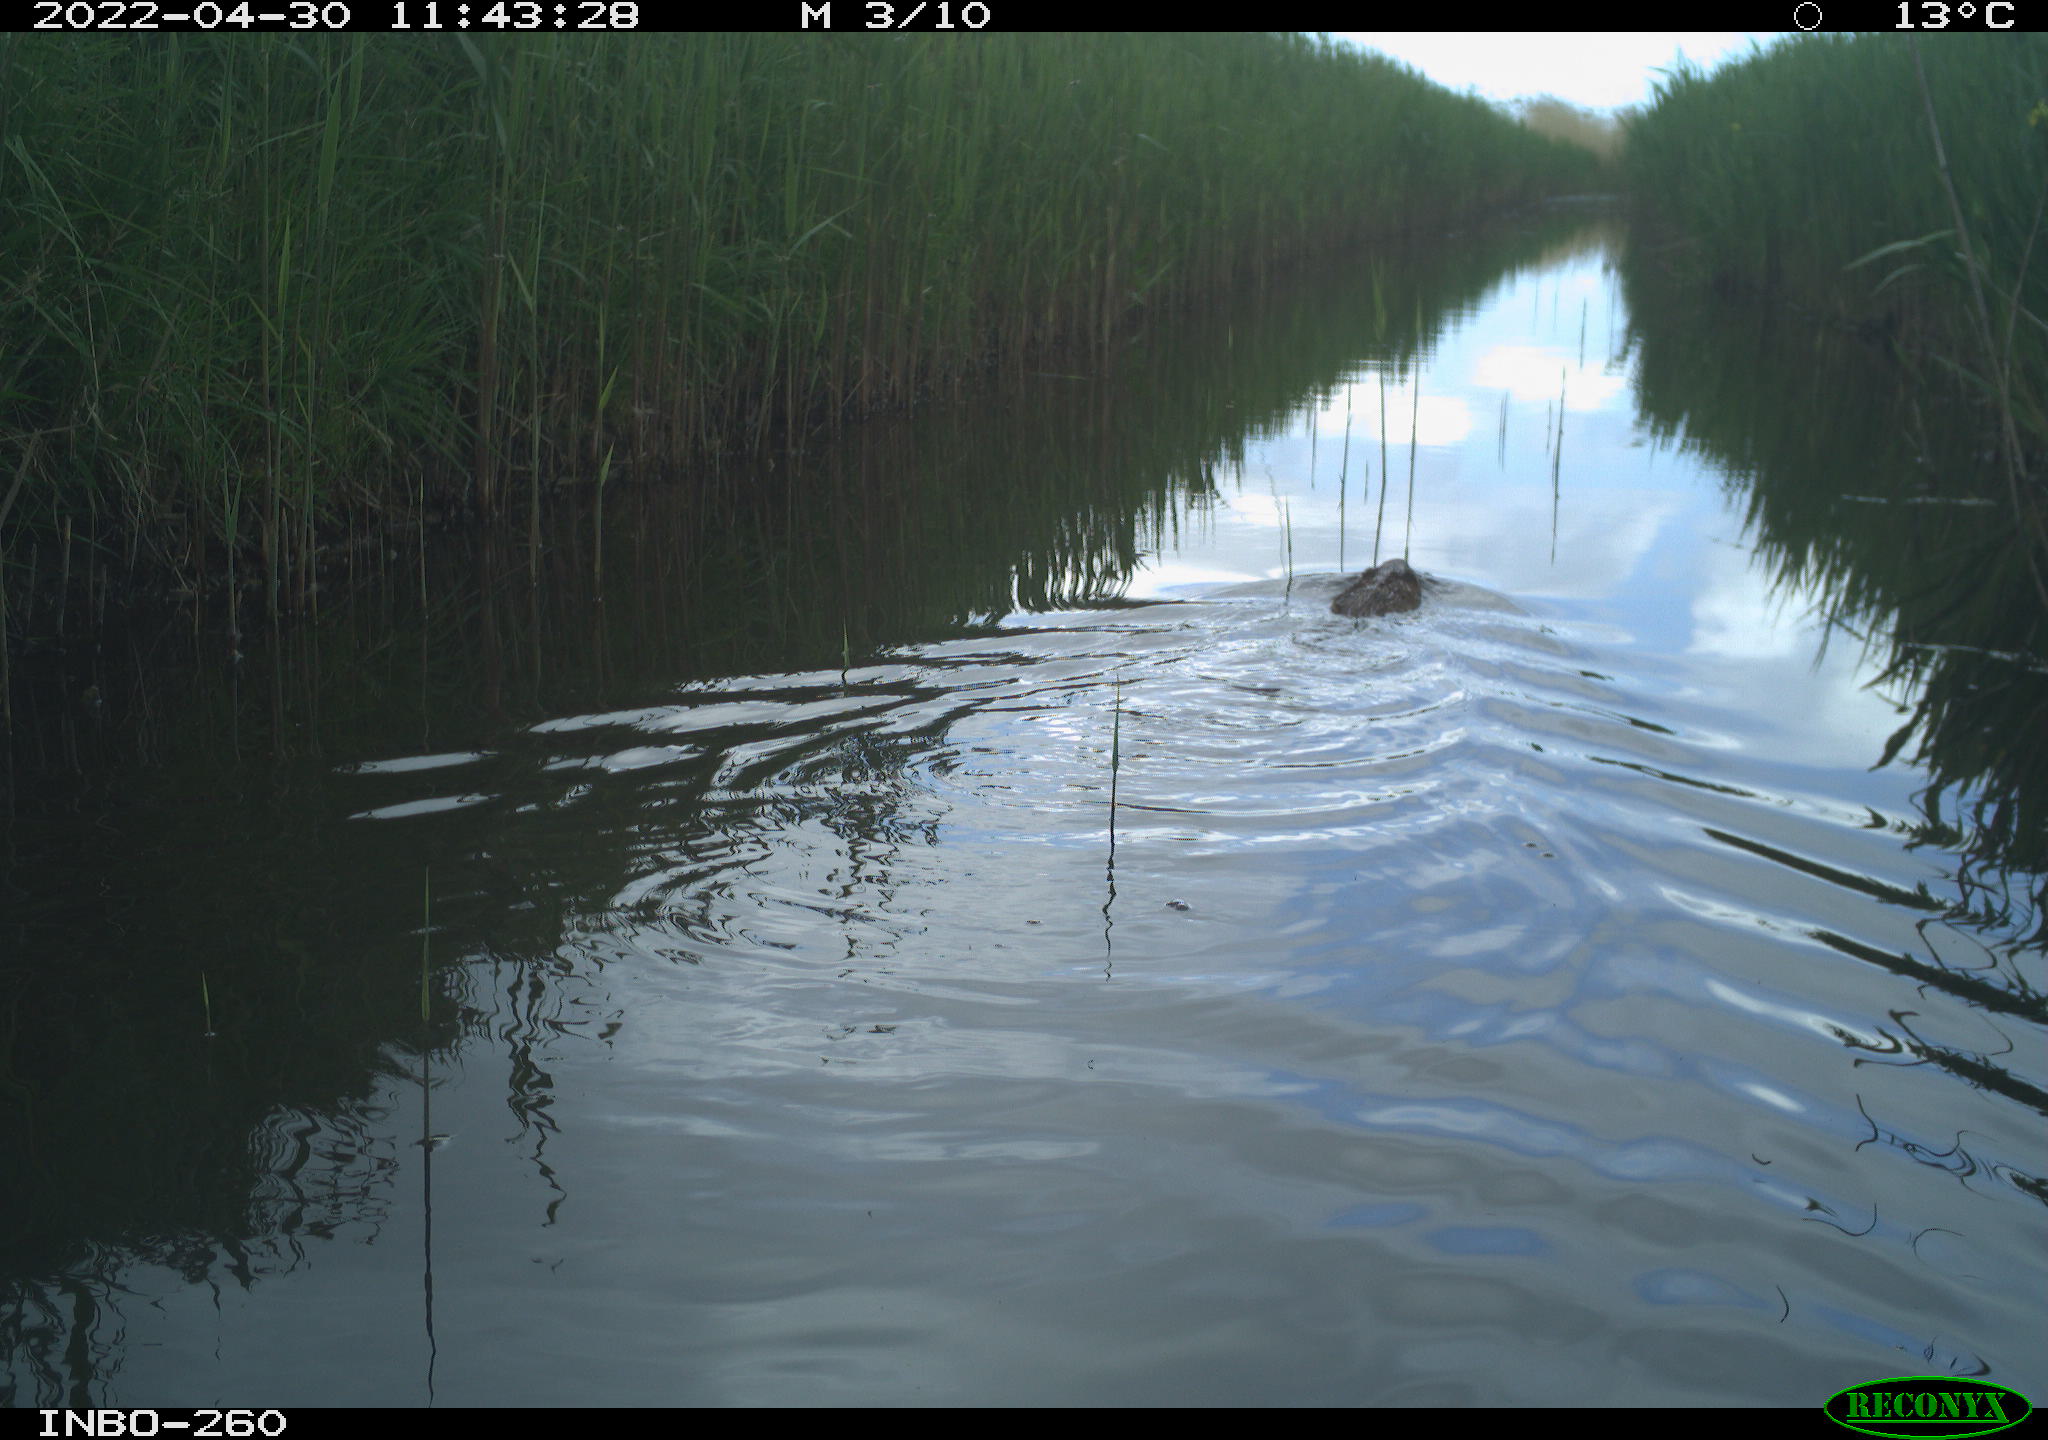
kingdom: Animalia
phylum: Chordata
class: Mammalia
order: Rodentia
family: Cricetidae
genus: Ondatra
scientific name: Ondatra zibethicus
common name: Muskrat
